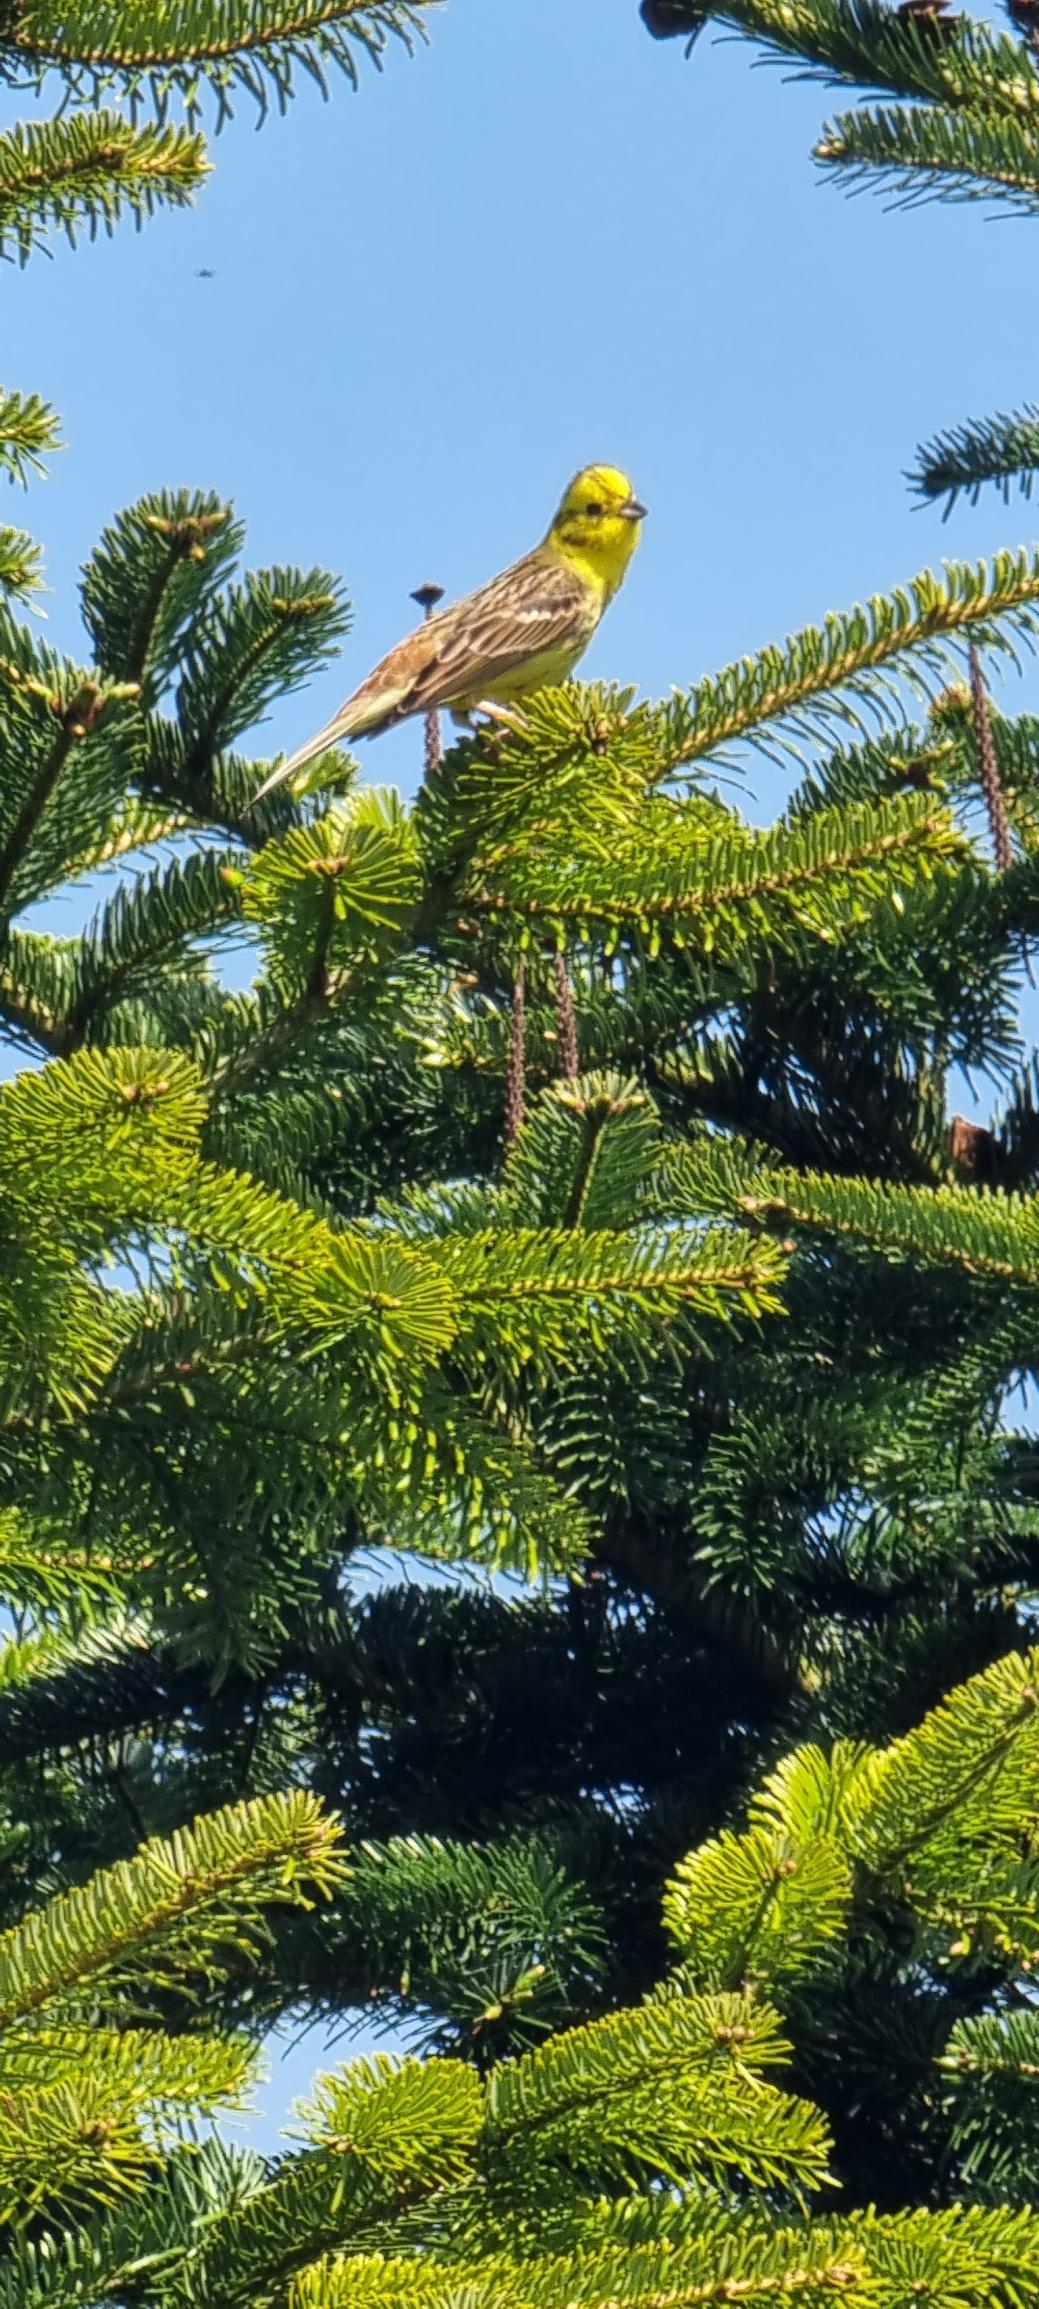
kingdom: Animalia
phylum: Chordata
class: Aves
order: Passeriformes
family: Emberizidae
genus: Emberiza
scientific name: Emberiza citrinella
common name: Gulspurv
